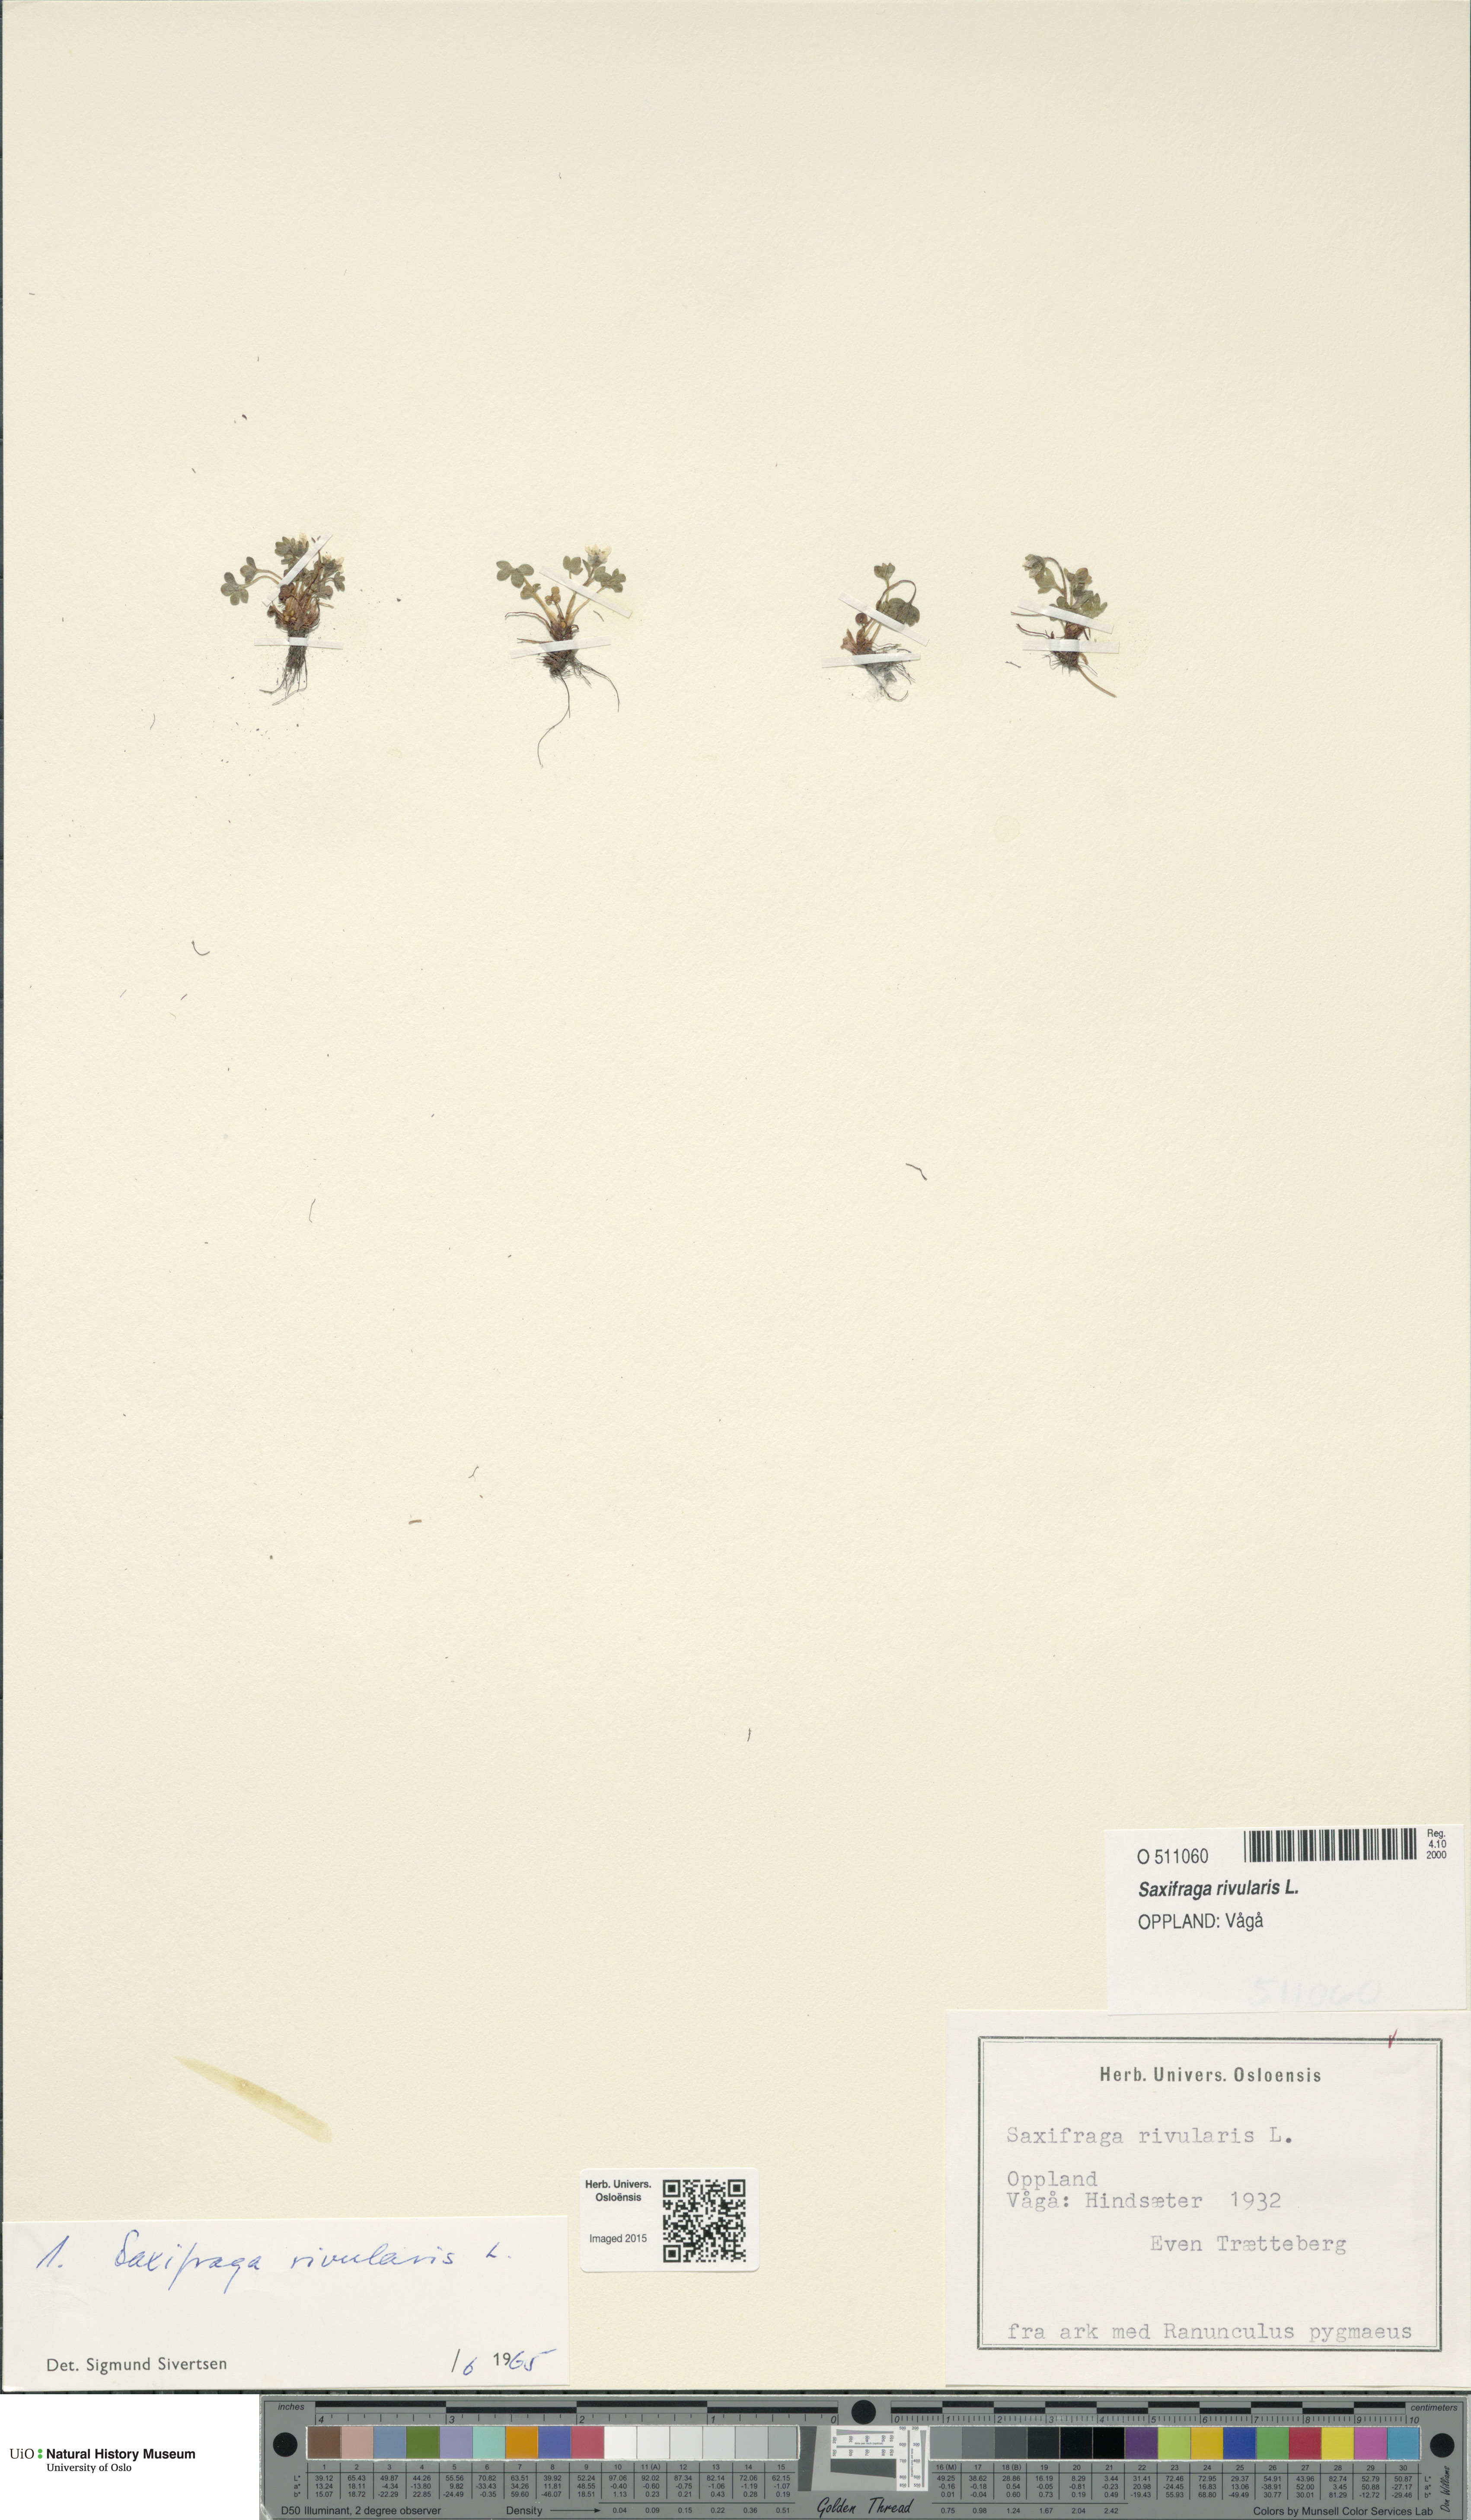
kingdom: Plantae
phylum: Tracheophyta
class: Magnoliopsida
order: Saxifragales
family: Saxifragaceae
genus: Saxifraga
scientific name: Saxifraga rivularis
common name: Highland saxifrage
